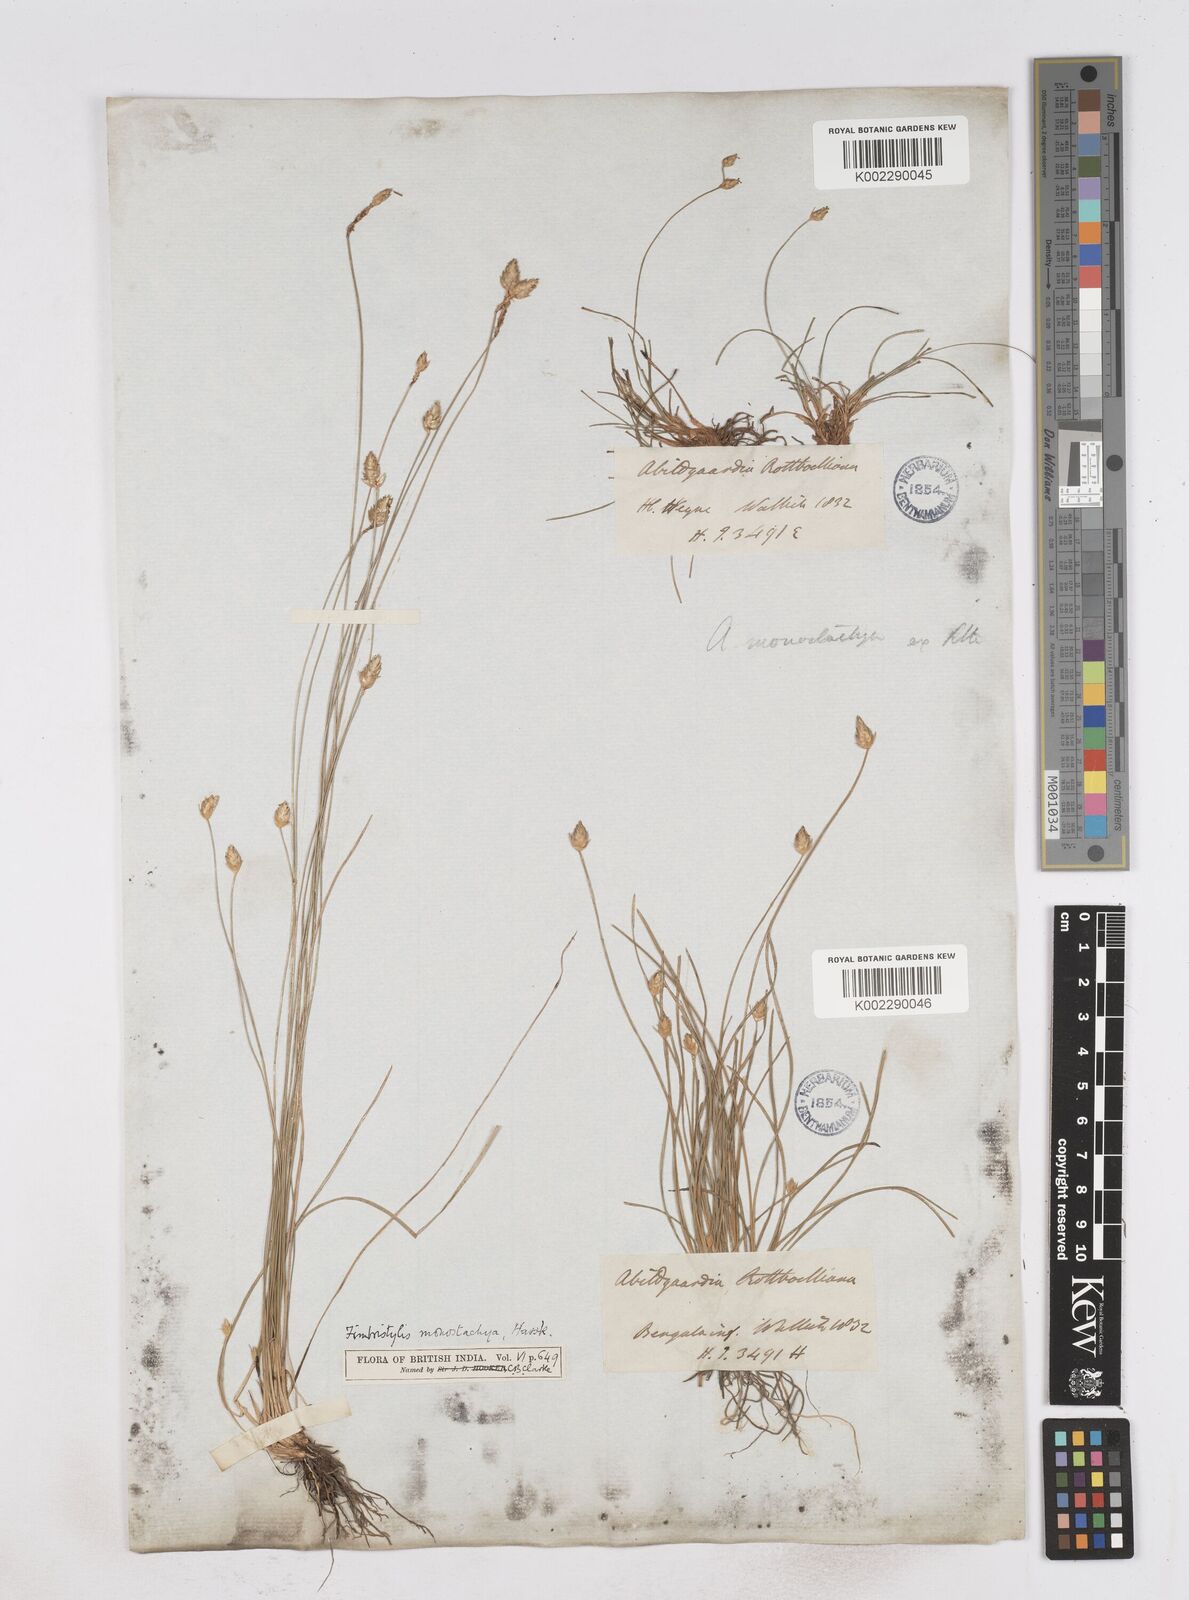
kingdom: Plantae
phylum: Tracheophyta
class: Liliopsida
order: Poales
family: Cyperaceae
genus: Abildgaardia
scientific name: Abildgaardia ovata
